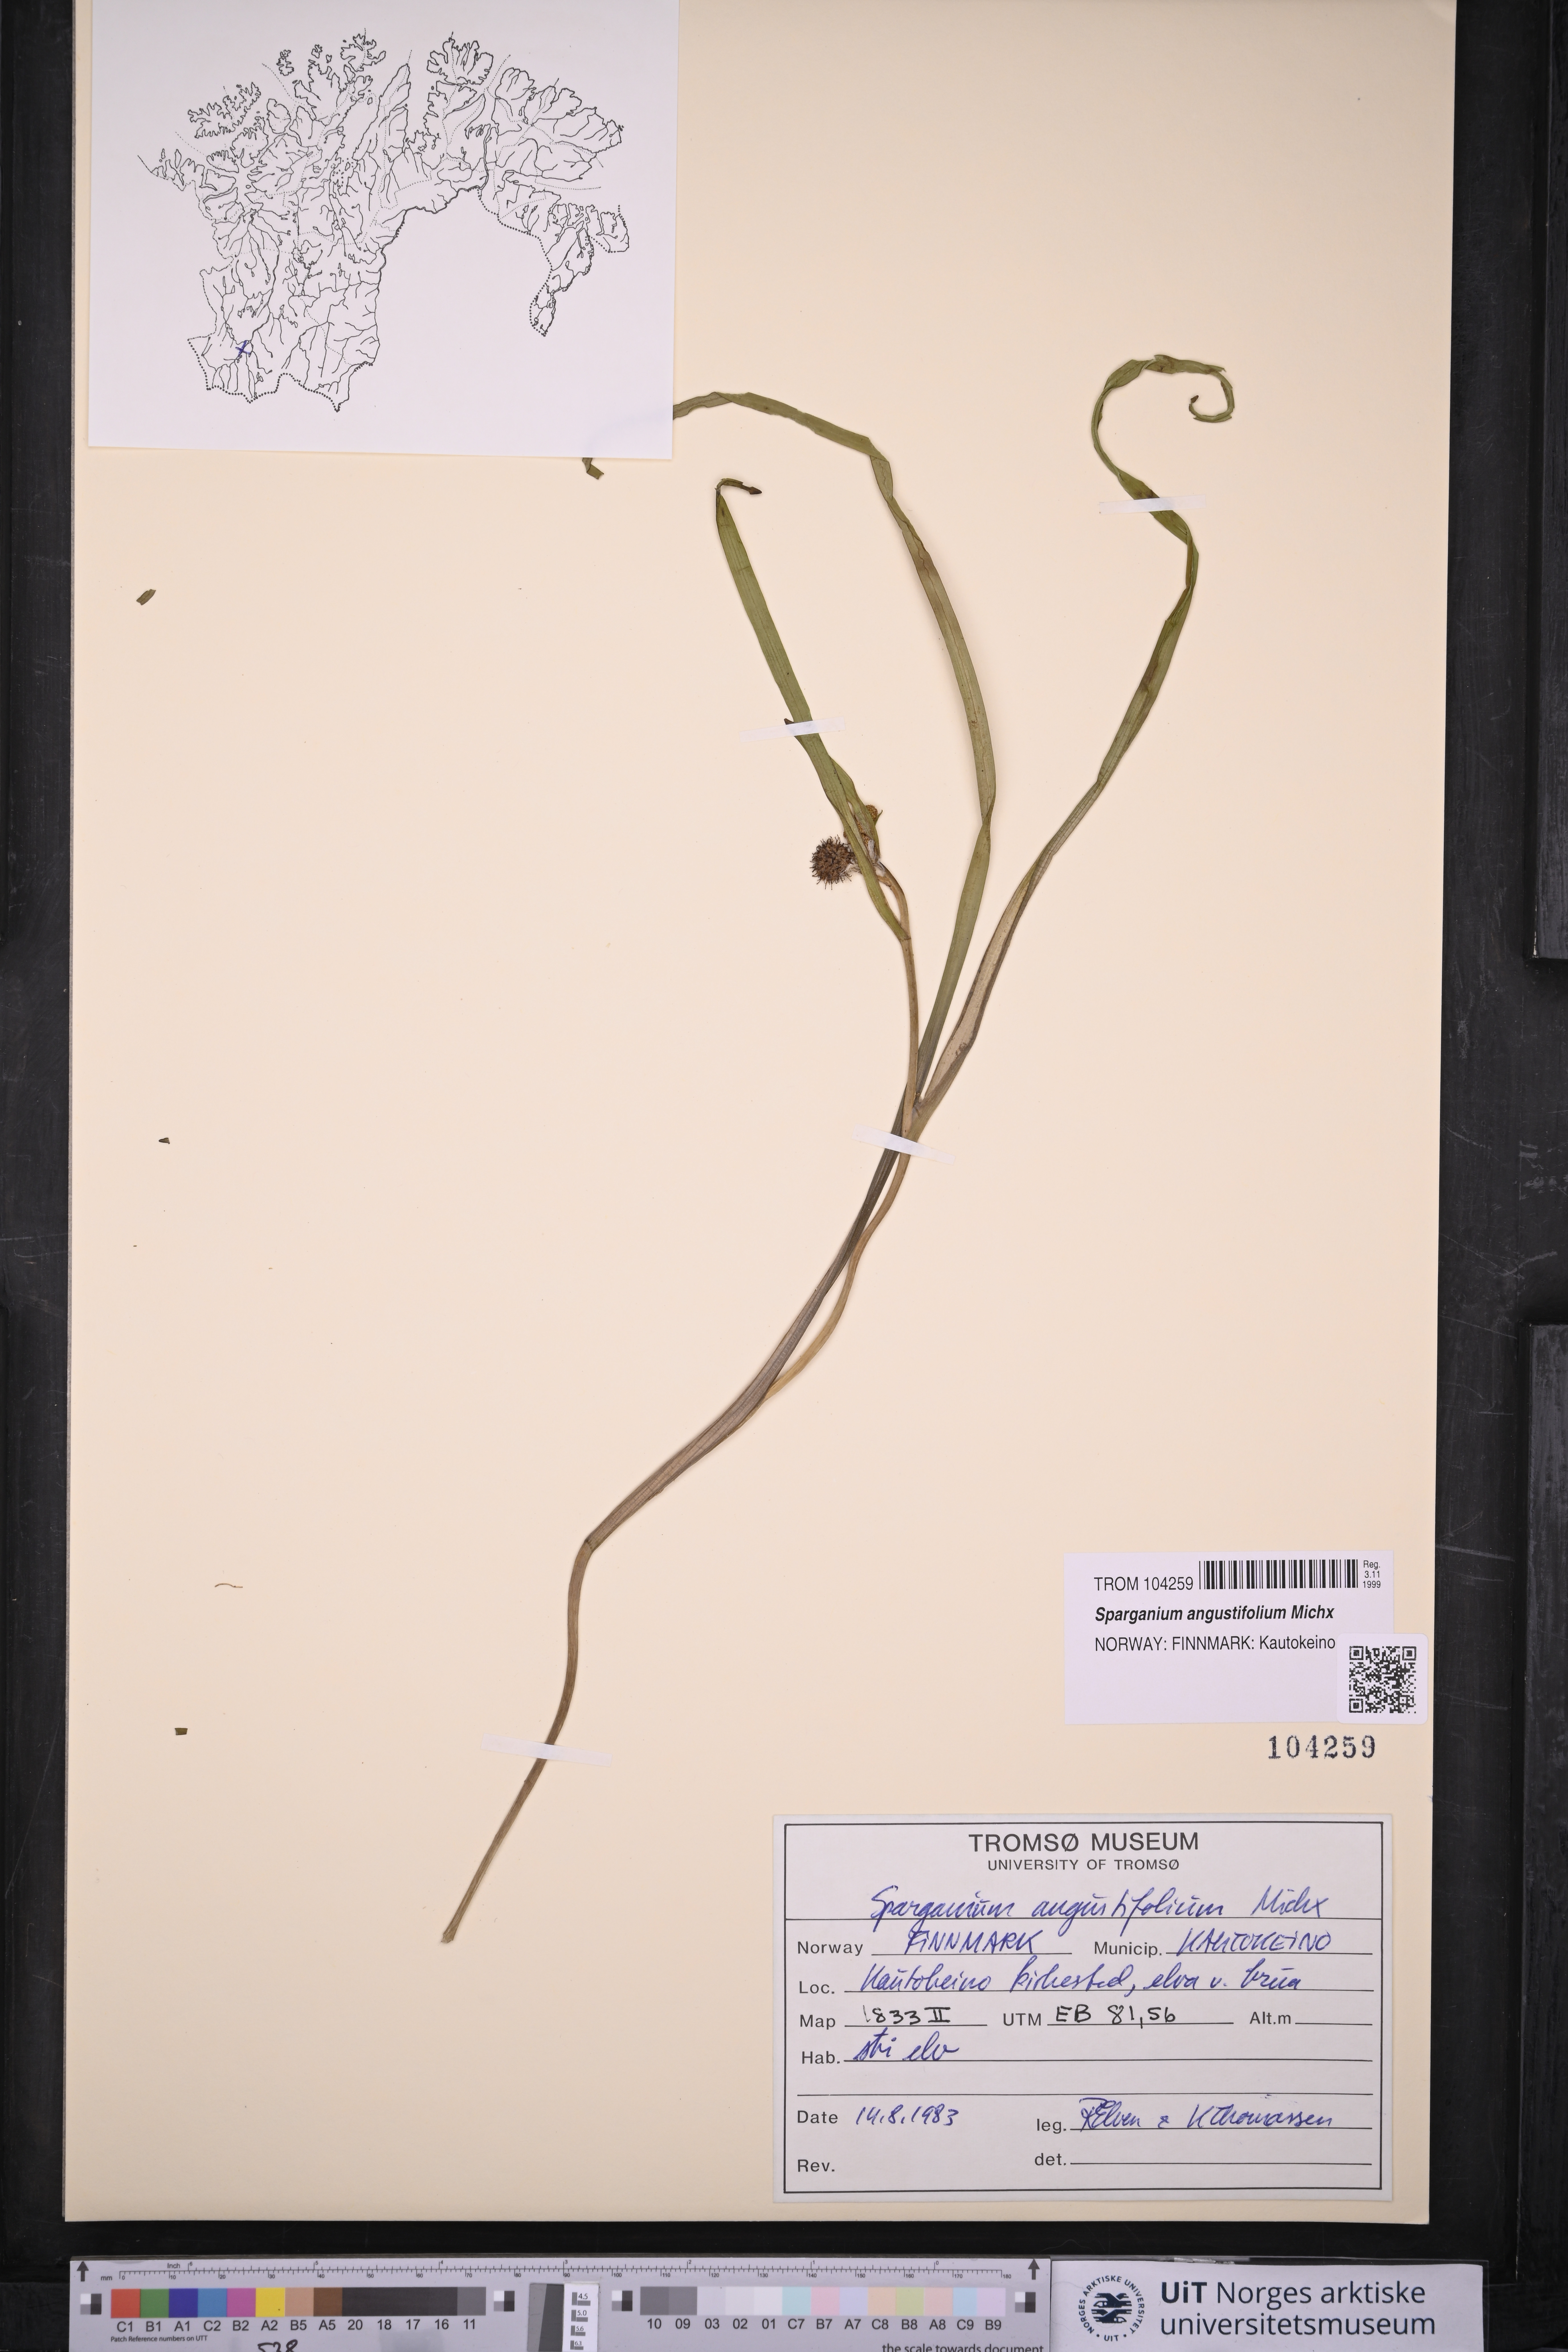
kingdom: Plantae
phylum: Tracheophyta
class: Liliopsida
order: Poales
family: Typhaceae
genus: Sparganium
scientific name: Sparganium angustifolium
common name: Floating bur-reed
